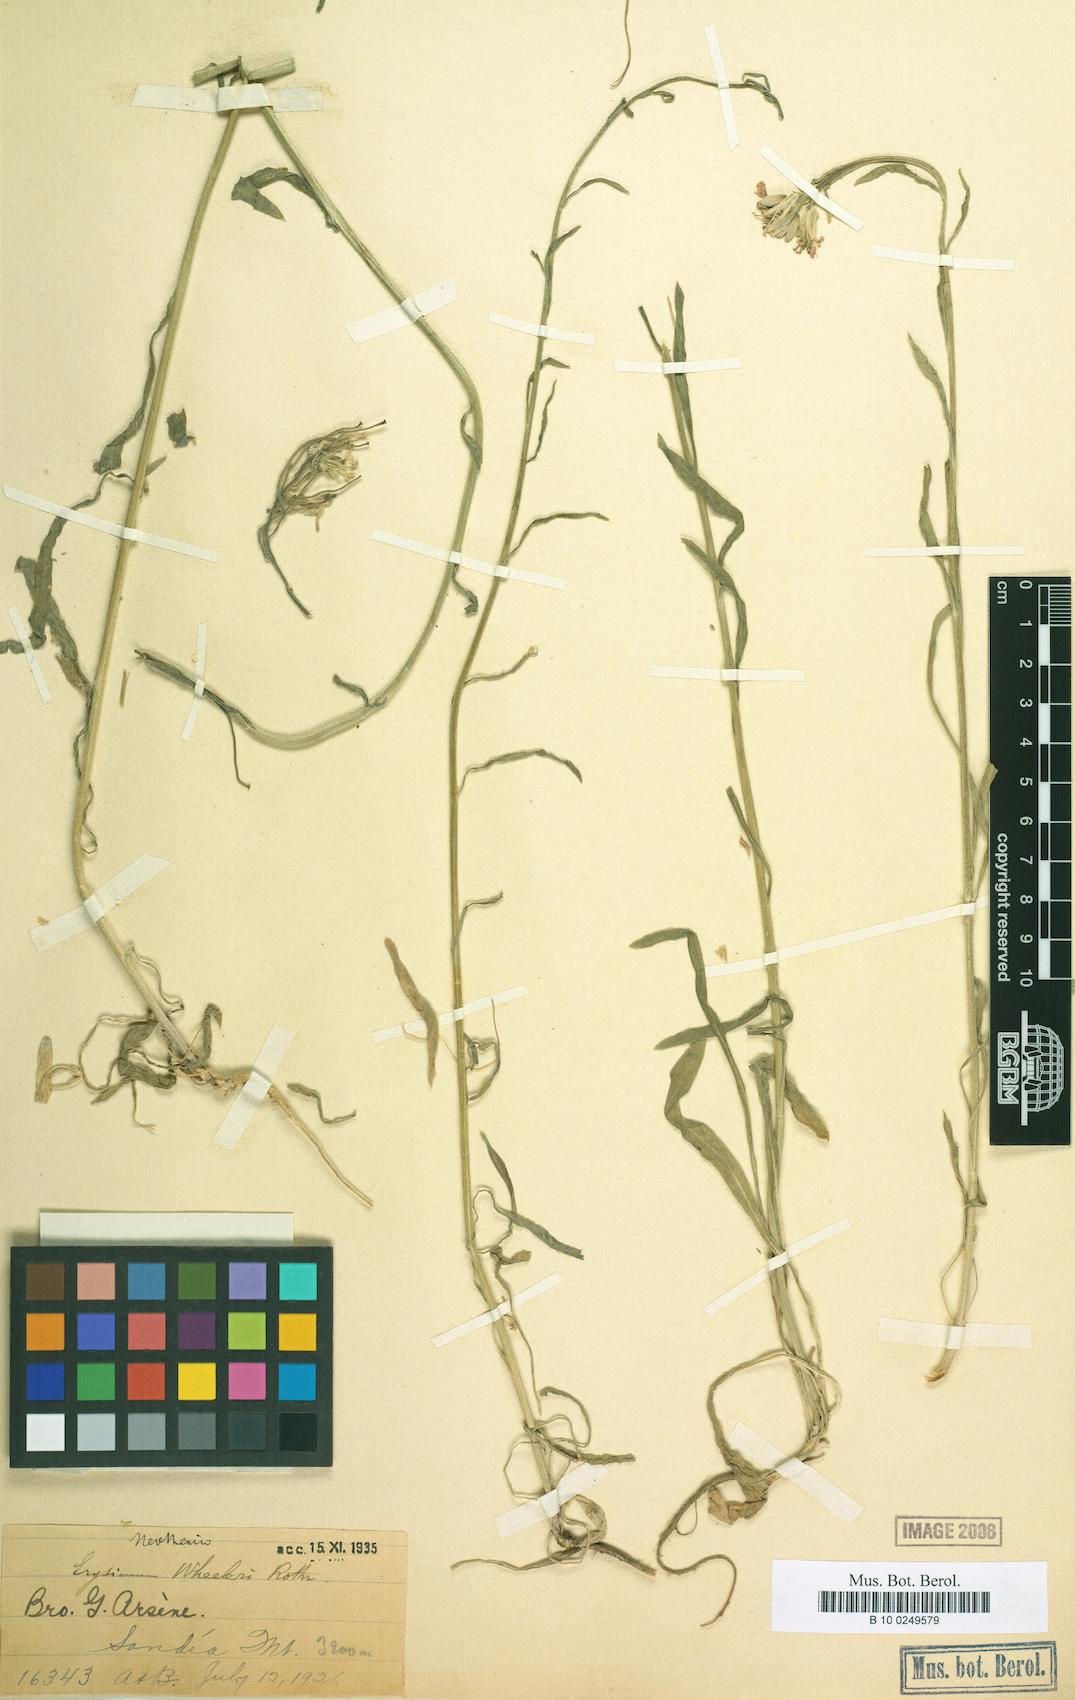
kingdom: Plantae
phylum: Tracheophyta
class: Magnoliopsida
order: Brassicales
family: Brassicaceae
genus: Erysimum
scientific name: Erysimum capitatum
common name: Western wallflower
